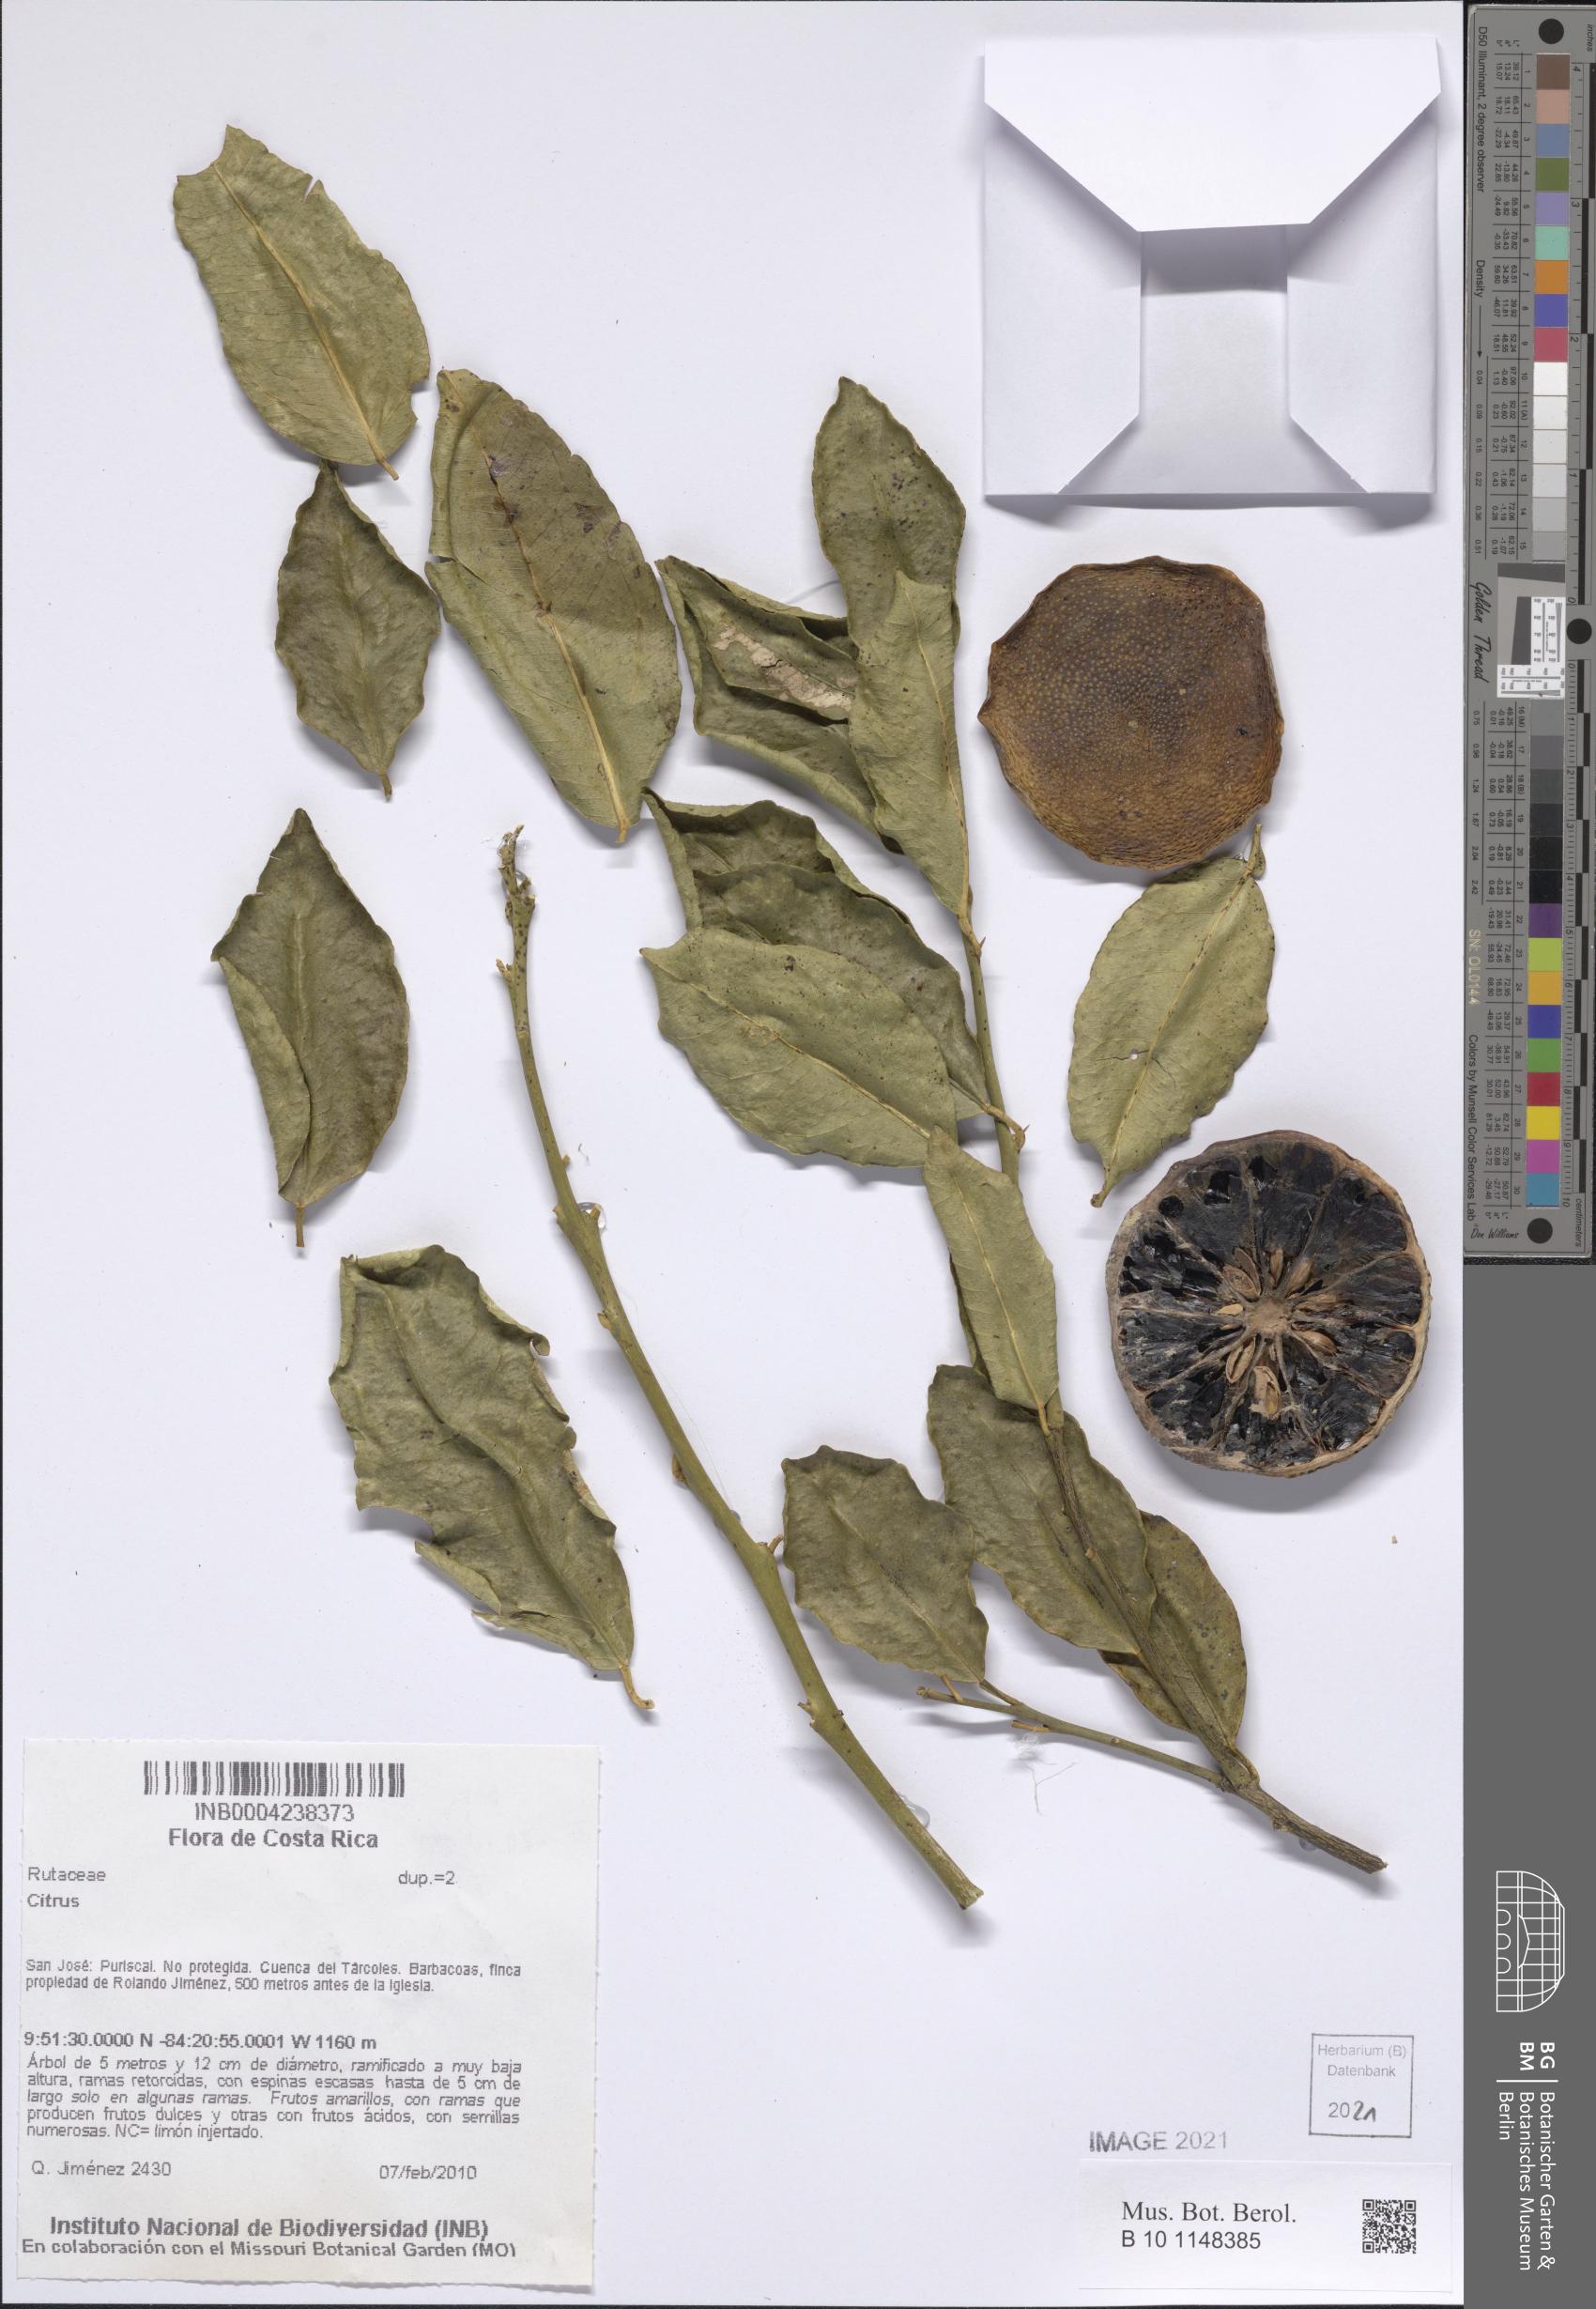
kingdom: Plantae
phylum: Tracheophyta
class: Magnoliopsida
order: Sapindales
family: Rutaceae
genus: Citrus
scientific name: Citrus
